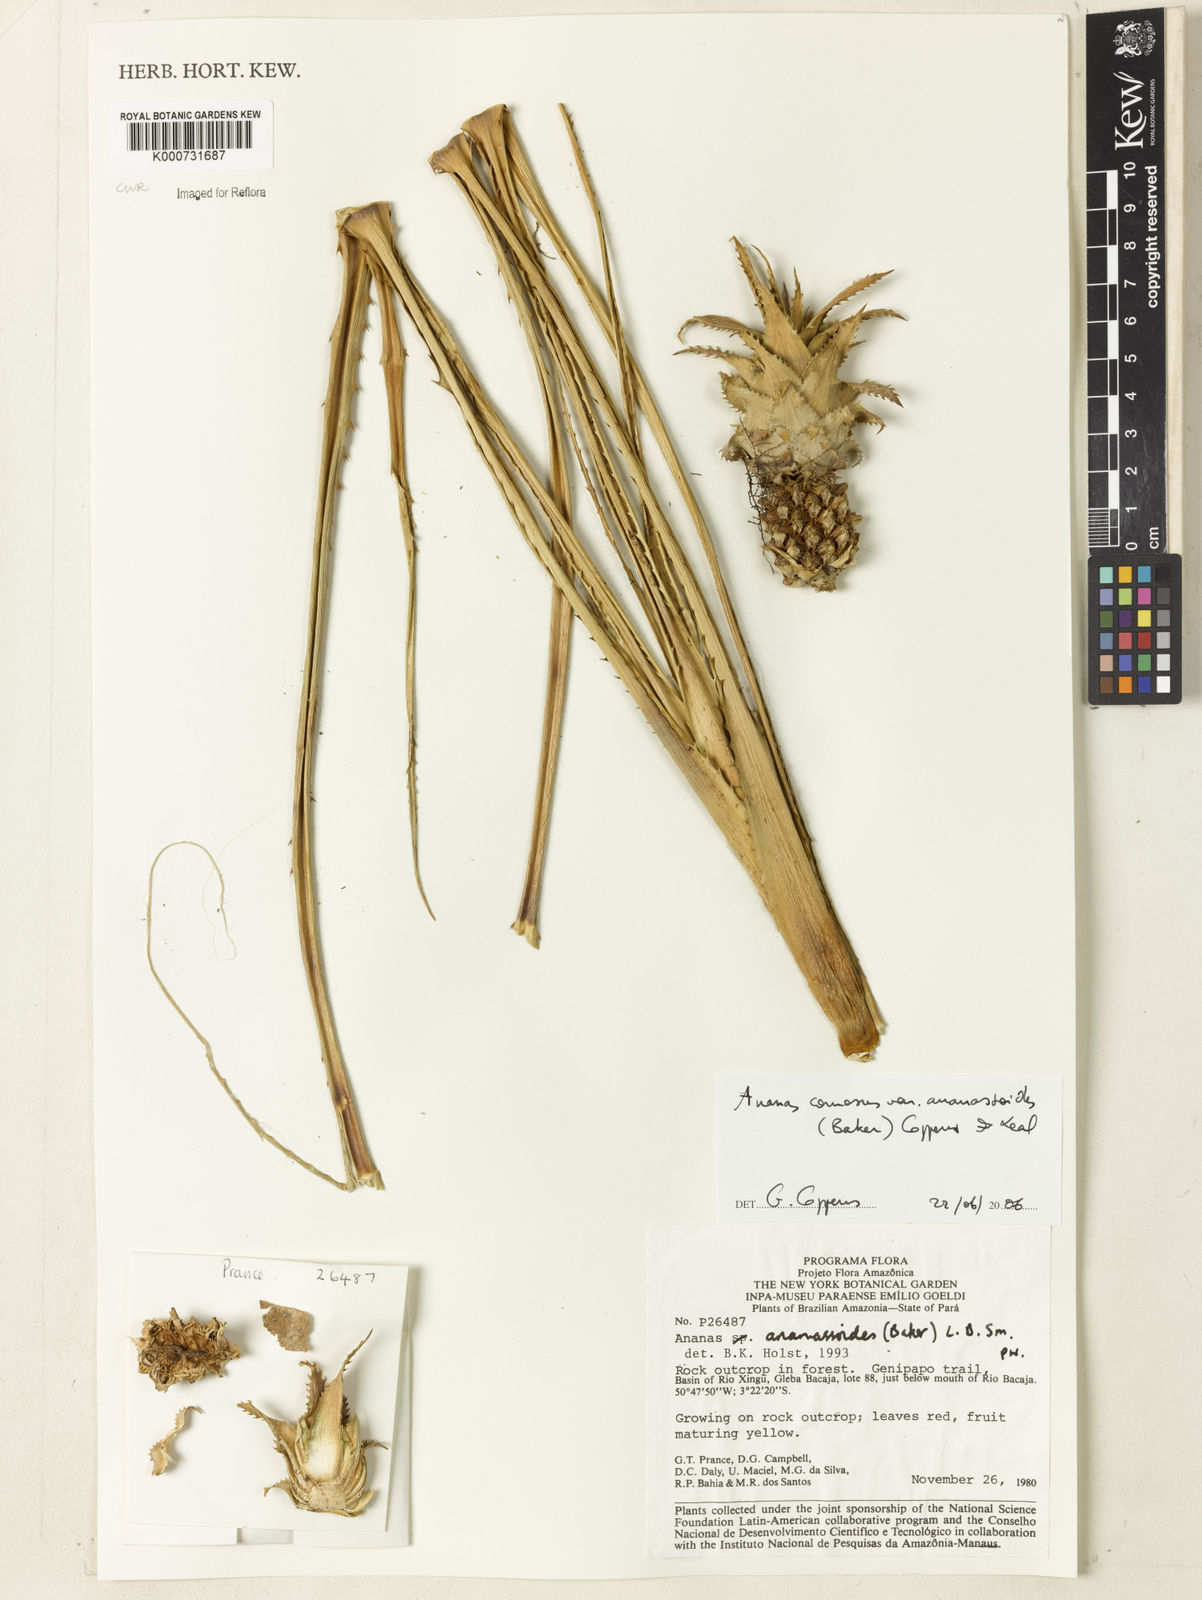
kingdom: Plantae
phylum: Tracheophyta
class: Liliopsida
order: Poales
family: Bromeliaceae
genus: Ananas
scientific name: Ananas comosus
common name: Pineapple
